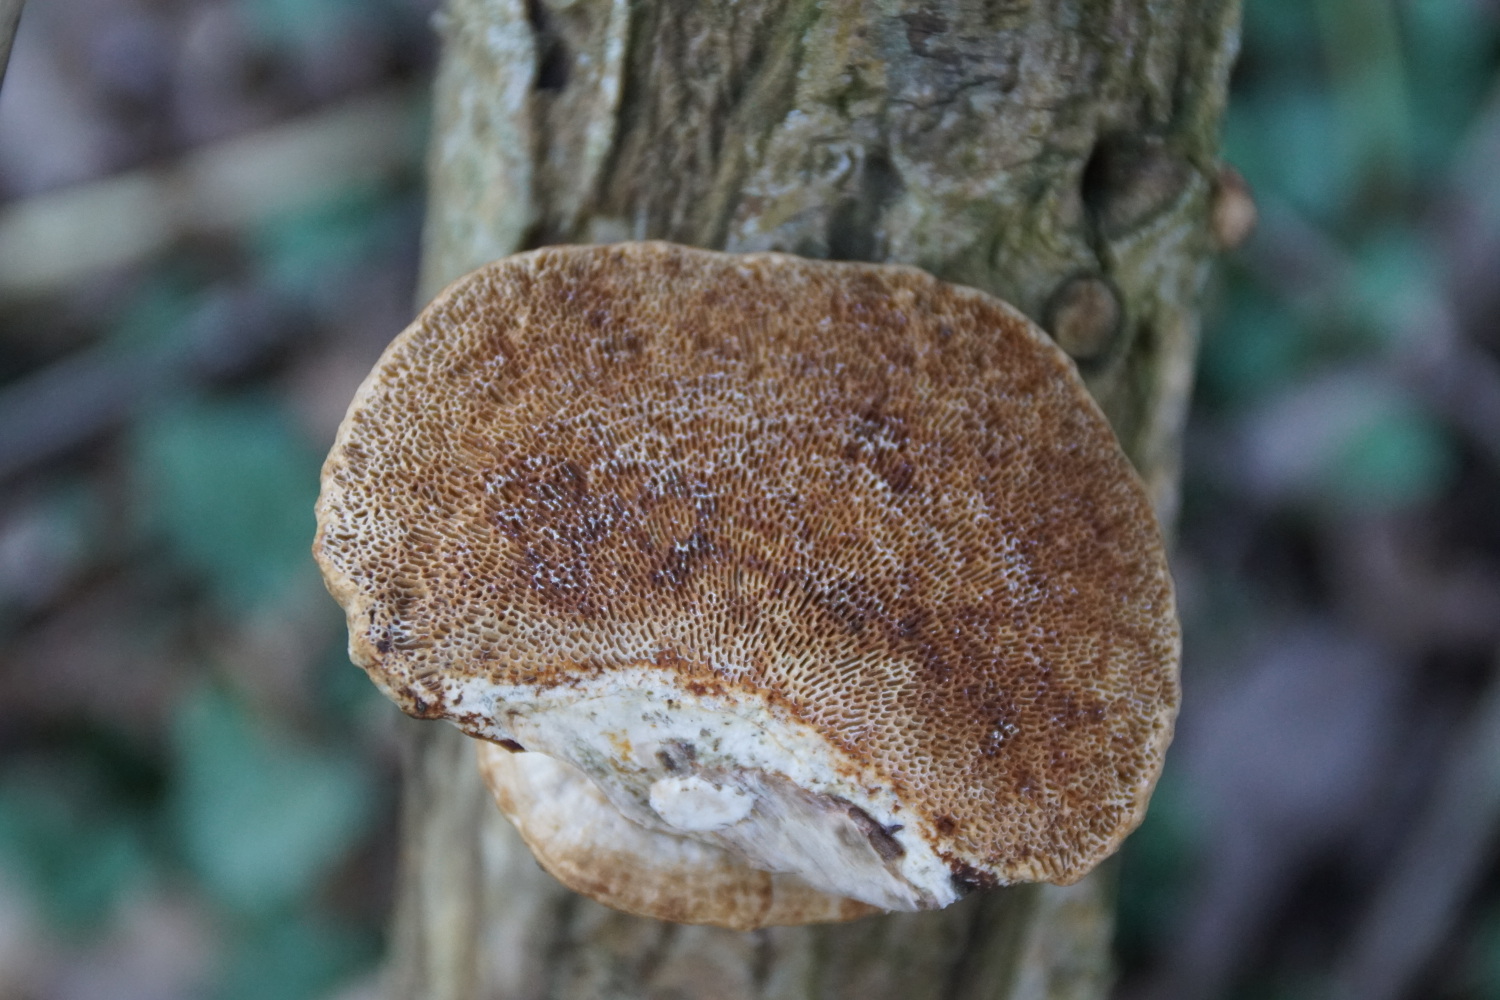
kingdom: Fungi
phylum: Basidiomycota
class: Agaricomycetes
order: Polyporales
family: Polyporaceae
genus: Daedaleopsis
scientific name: Daedaleopsis confragosa
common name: rødmende læderporesvamp
